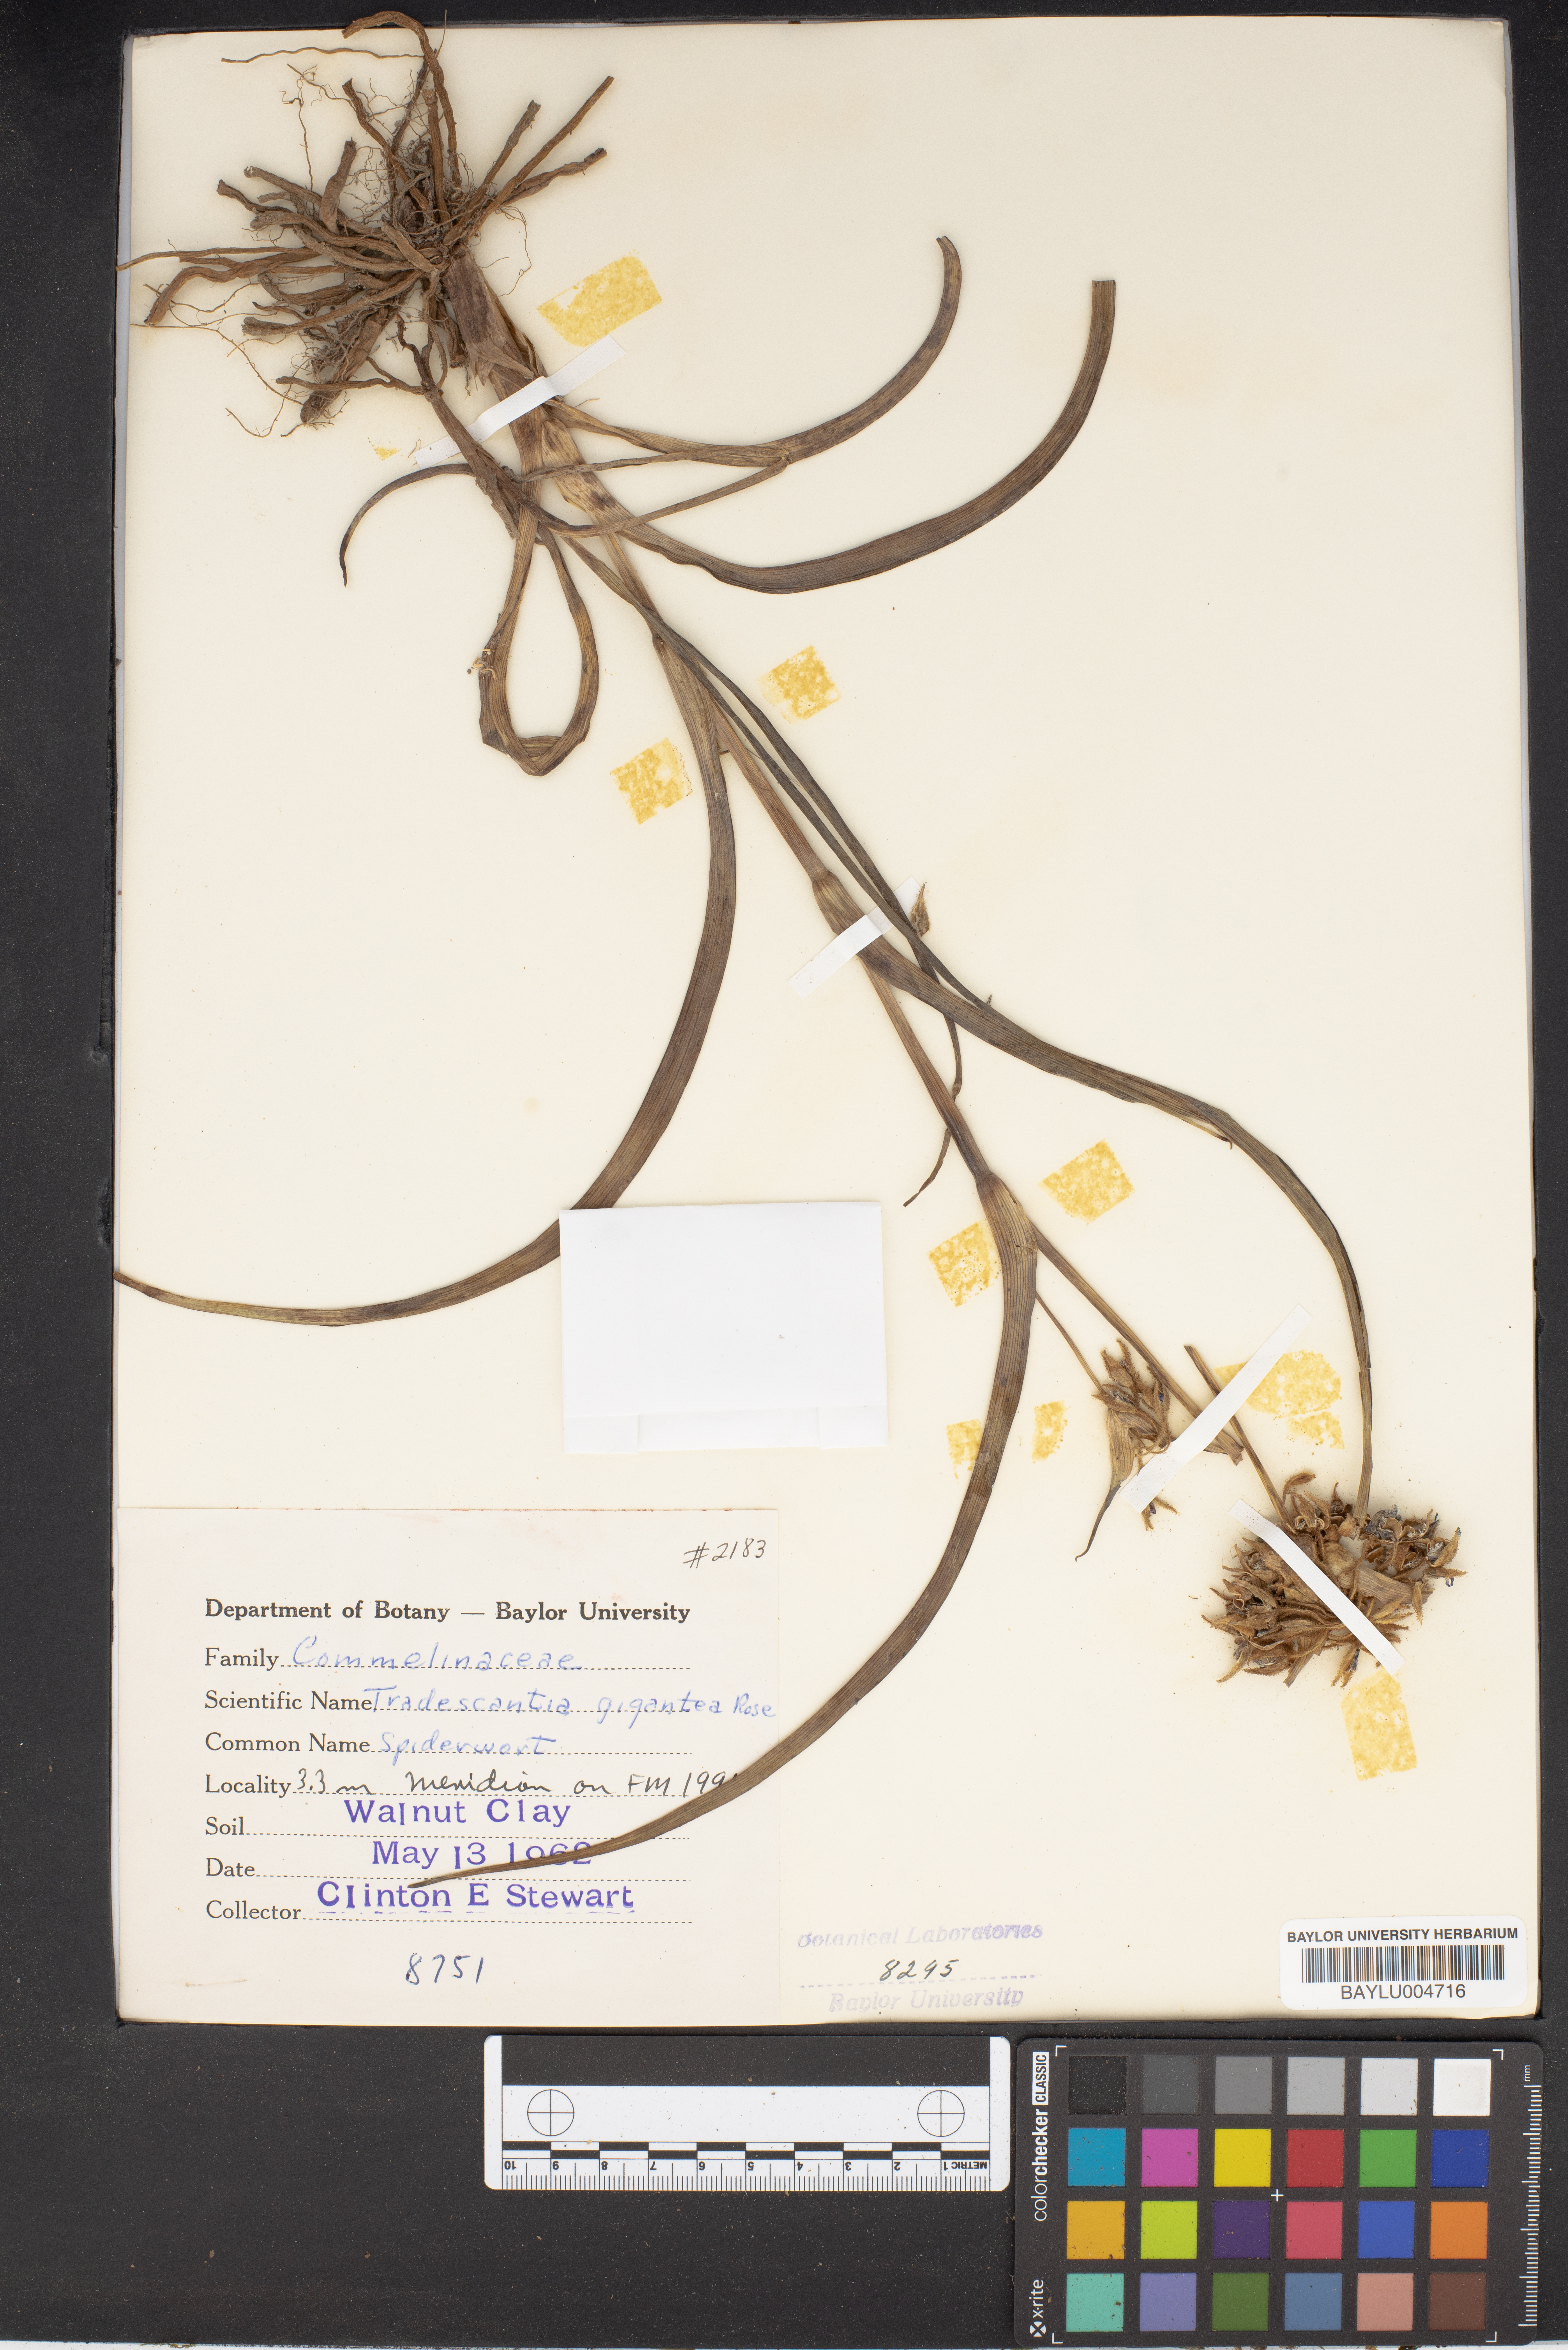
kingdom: Plantae
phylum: Tracheophyta
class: Liliopsida
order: Commelinales
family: Commelinaceae
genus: Tradescantia
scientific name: Tradescantia gigantea
